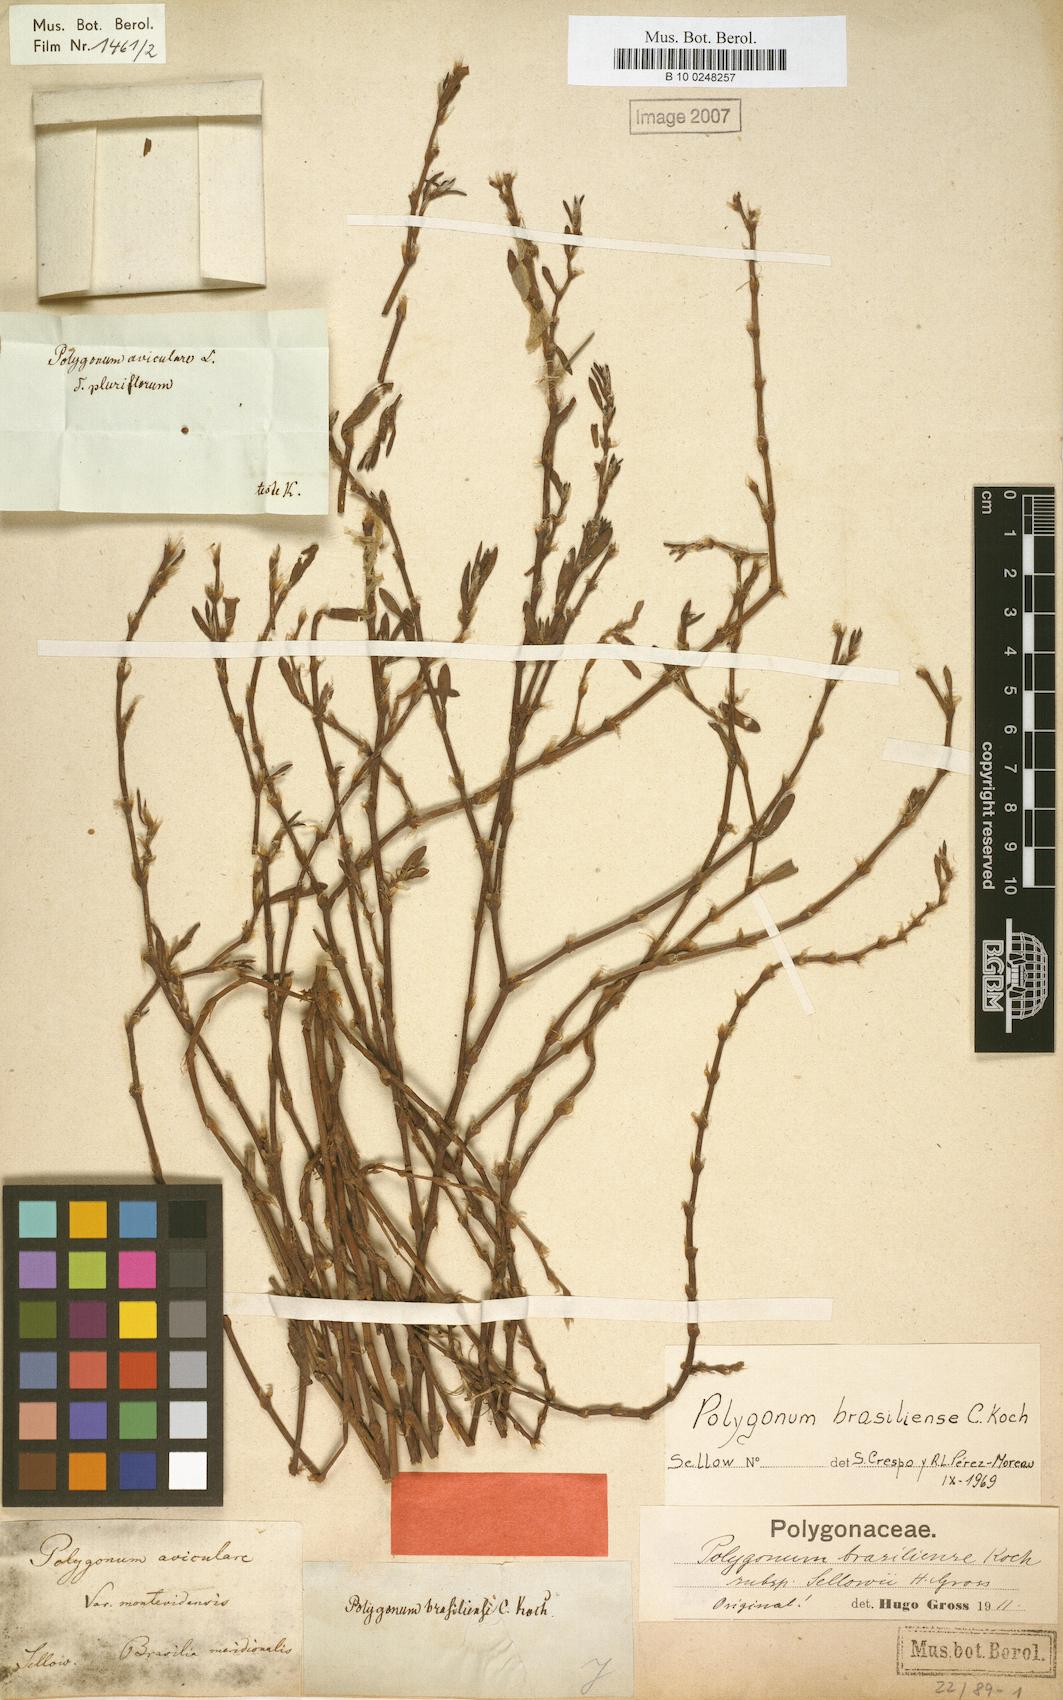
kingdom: Plantae
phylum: Tracheophyta
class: Magnoliopsida
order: Caryophyllales
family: Polygonaceae
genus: Polygonum
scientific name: Polygonum brasiliense
